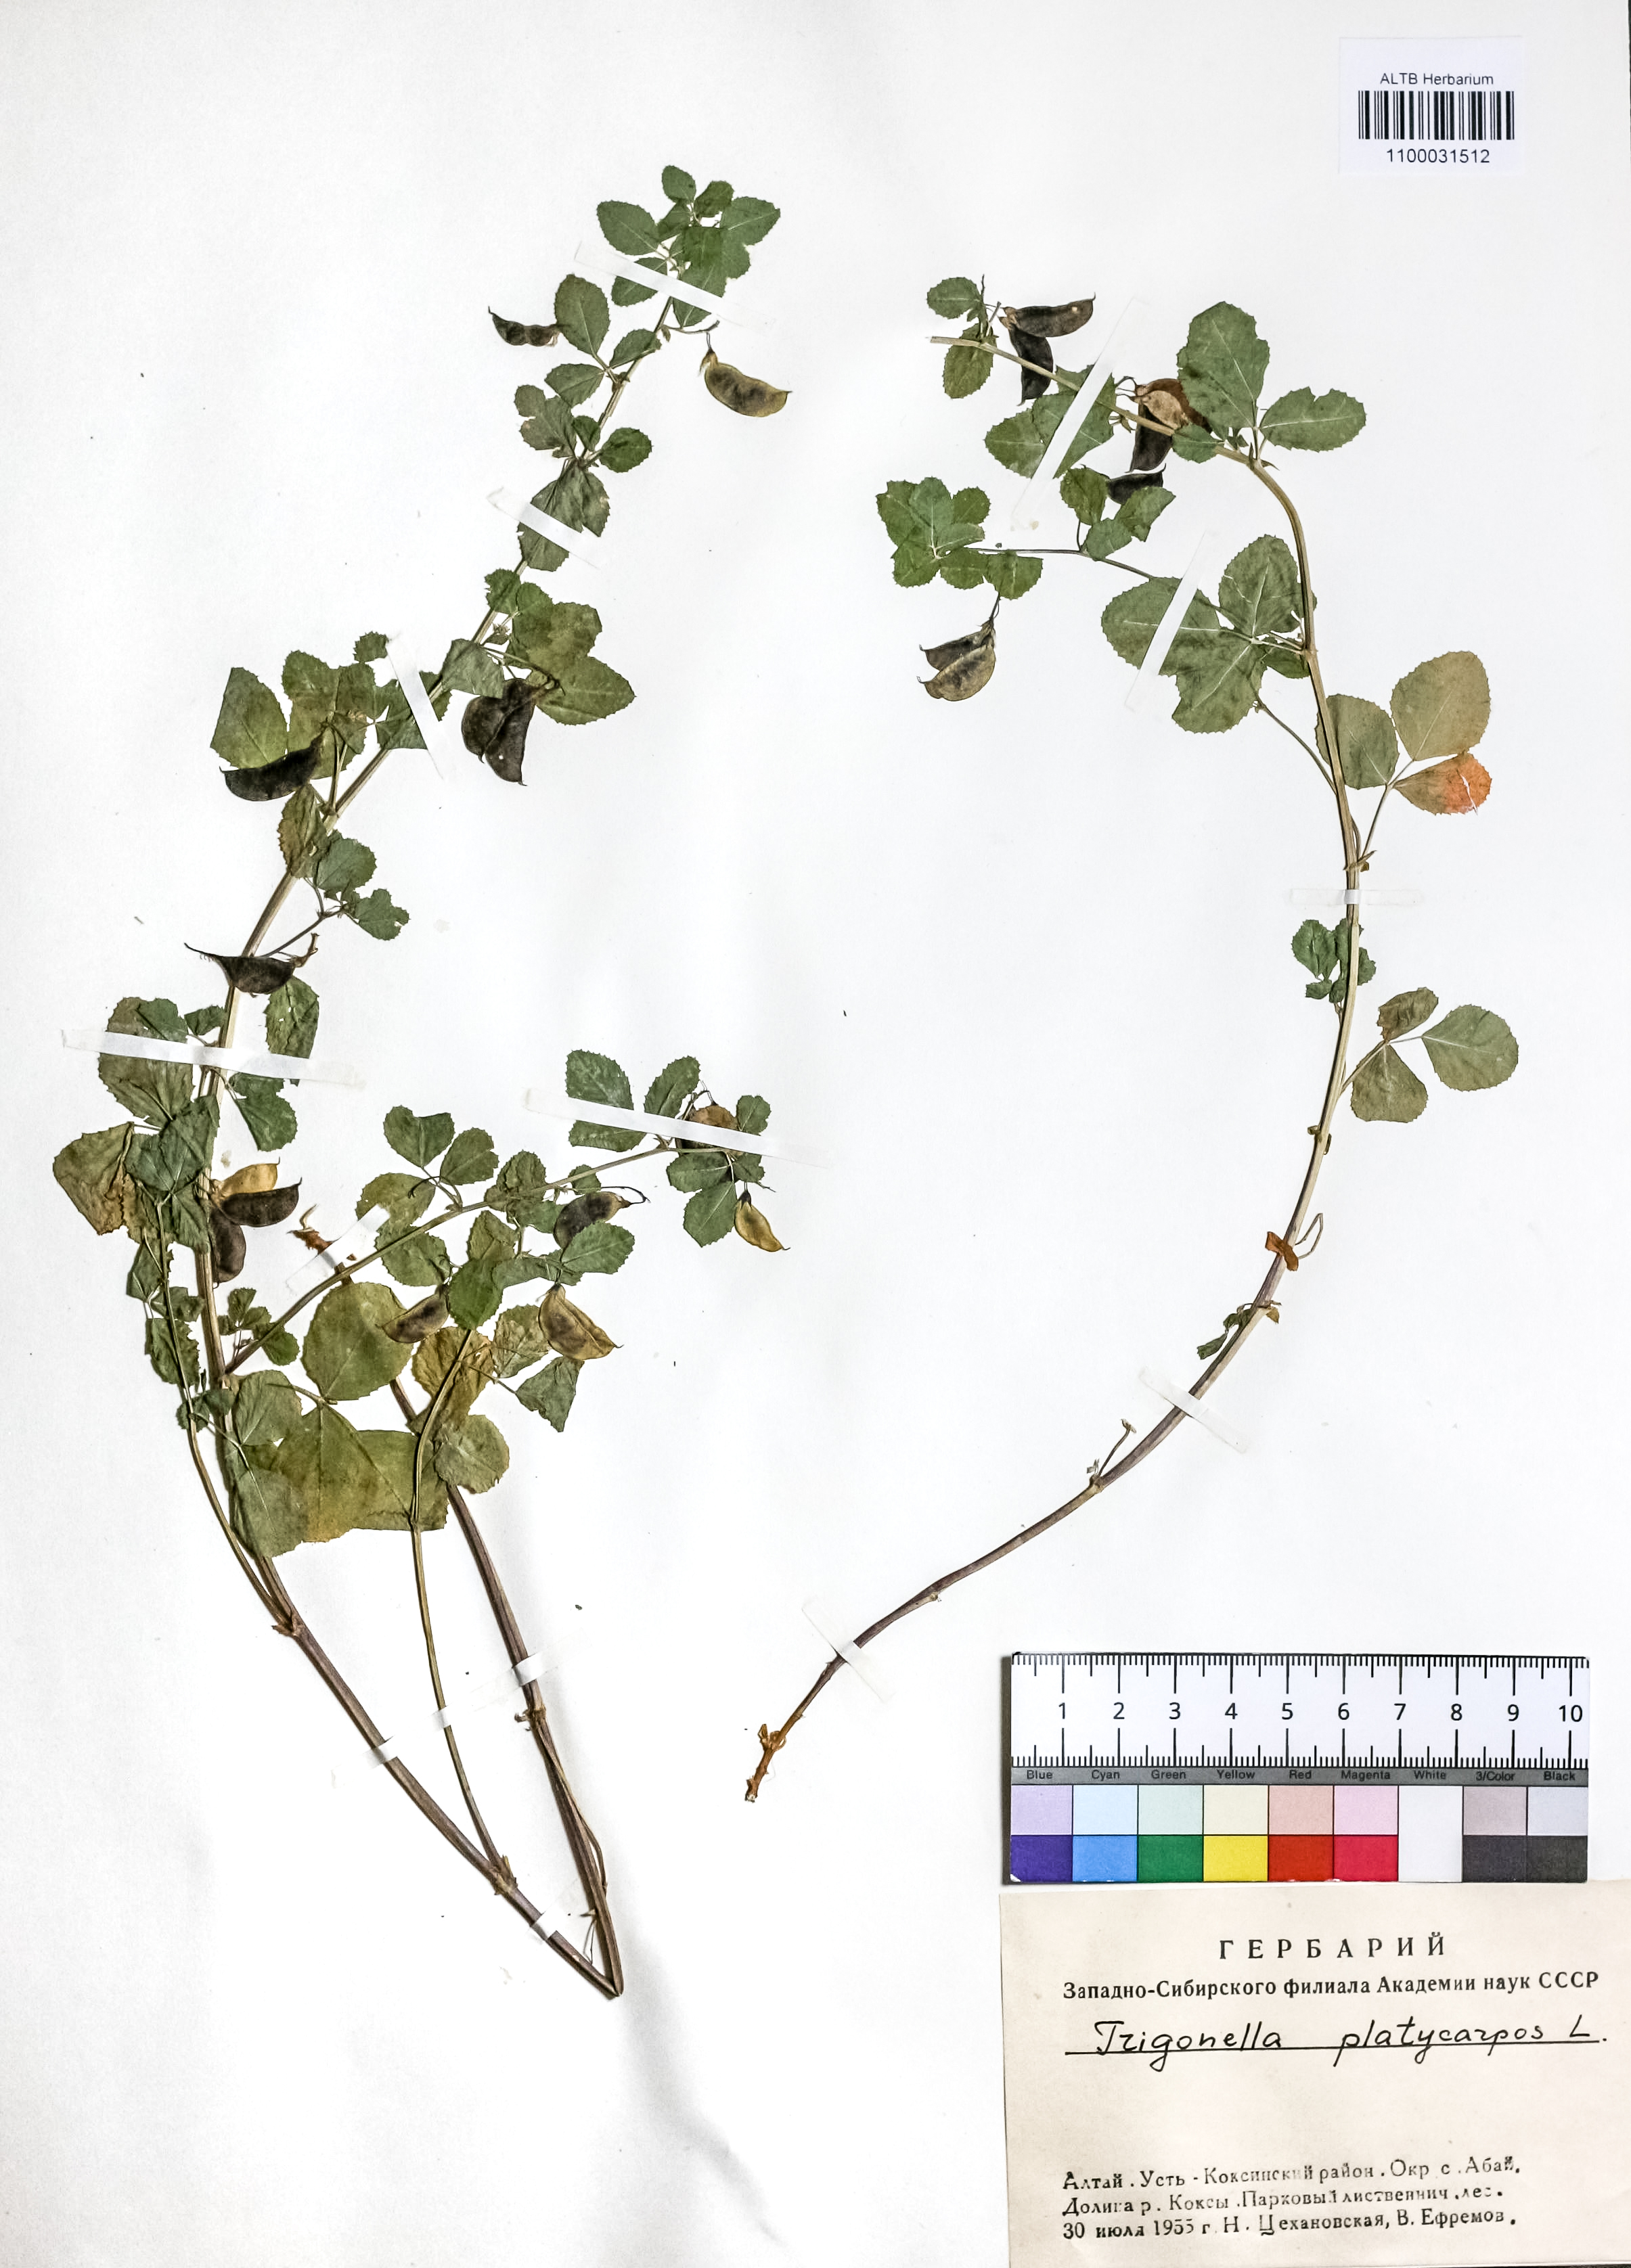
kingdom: Plantae
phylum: Tracheophyta
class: Magnoliopsida
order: Fabales
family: Fabaceae
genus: Medicago
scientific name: Medicago platycarpos
